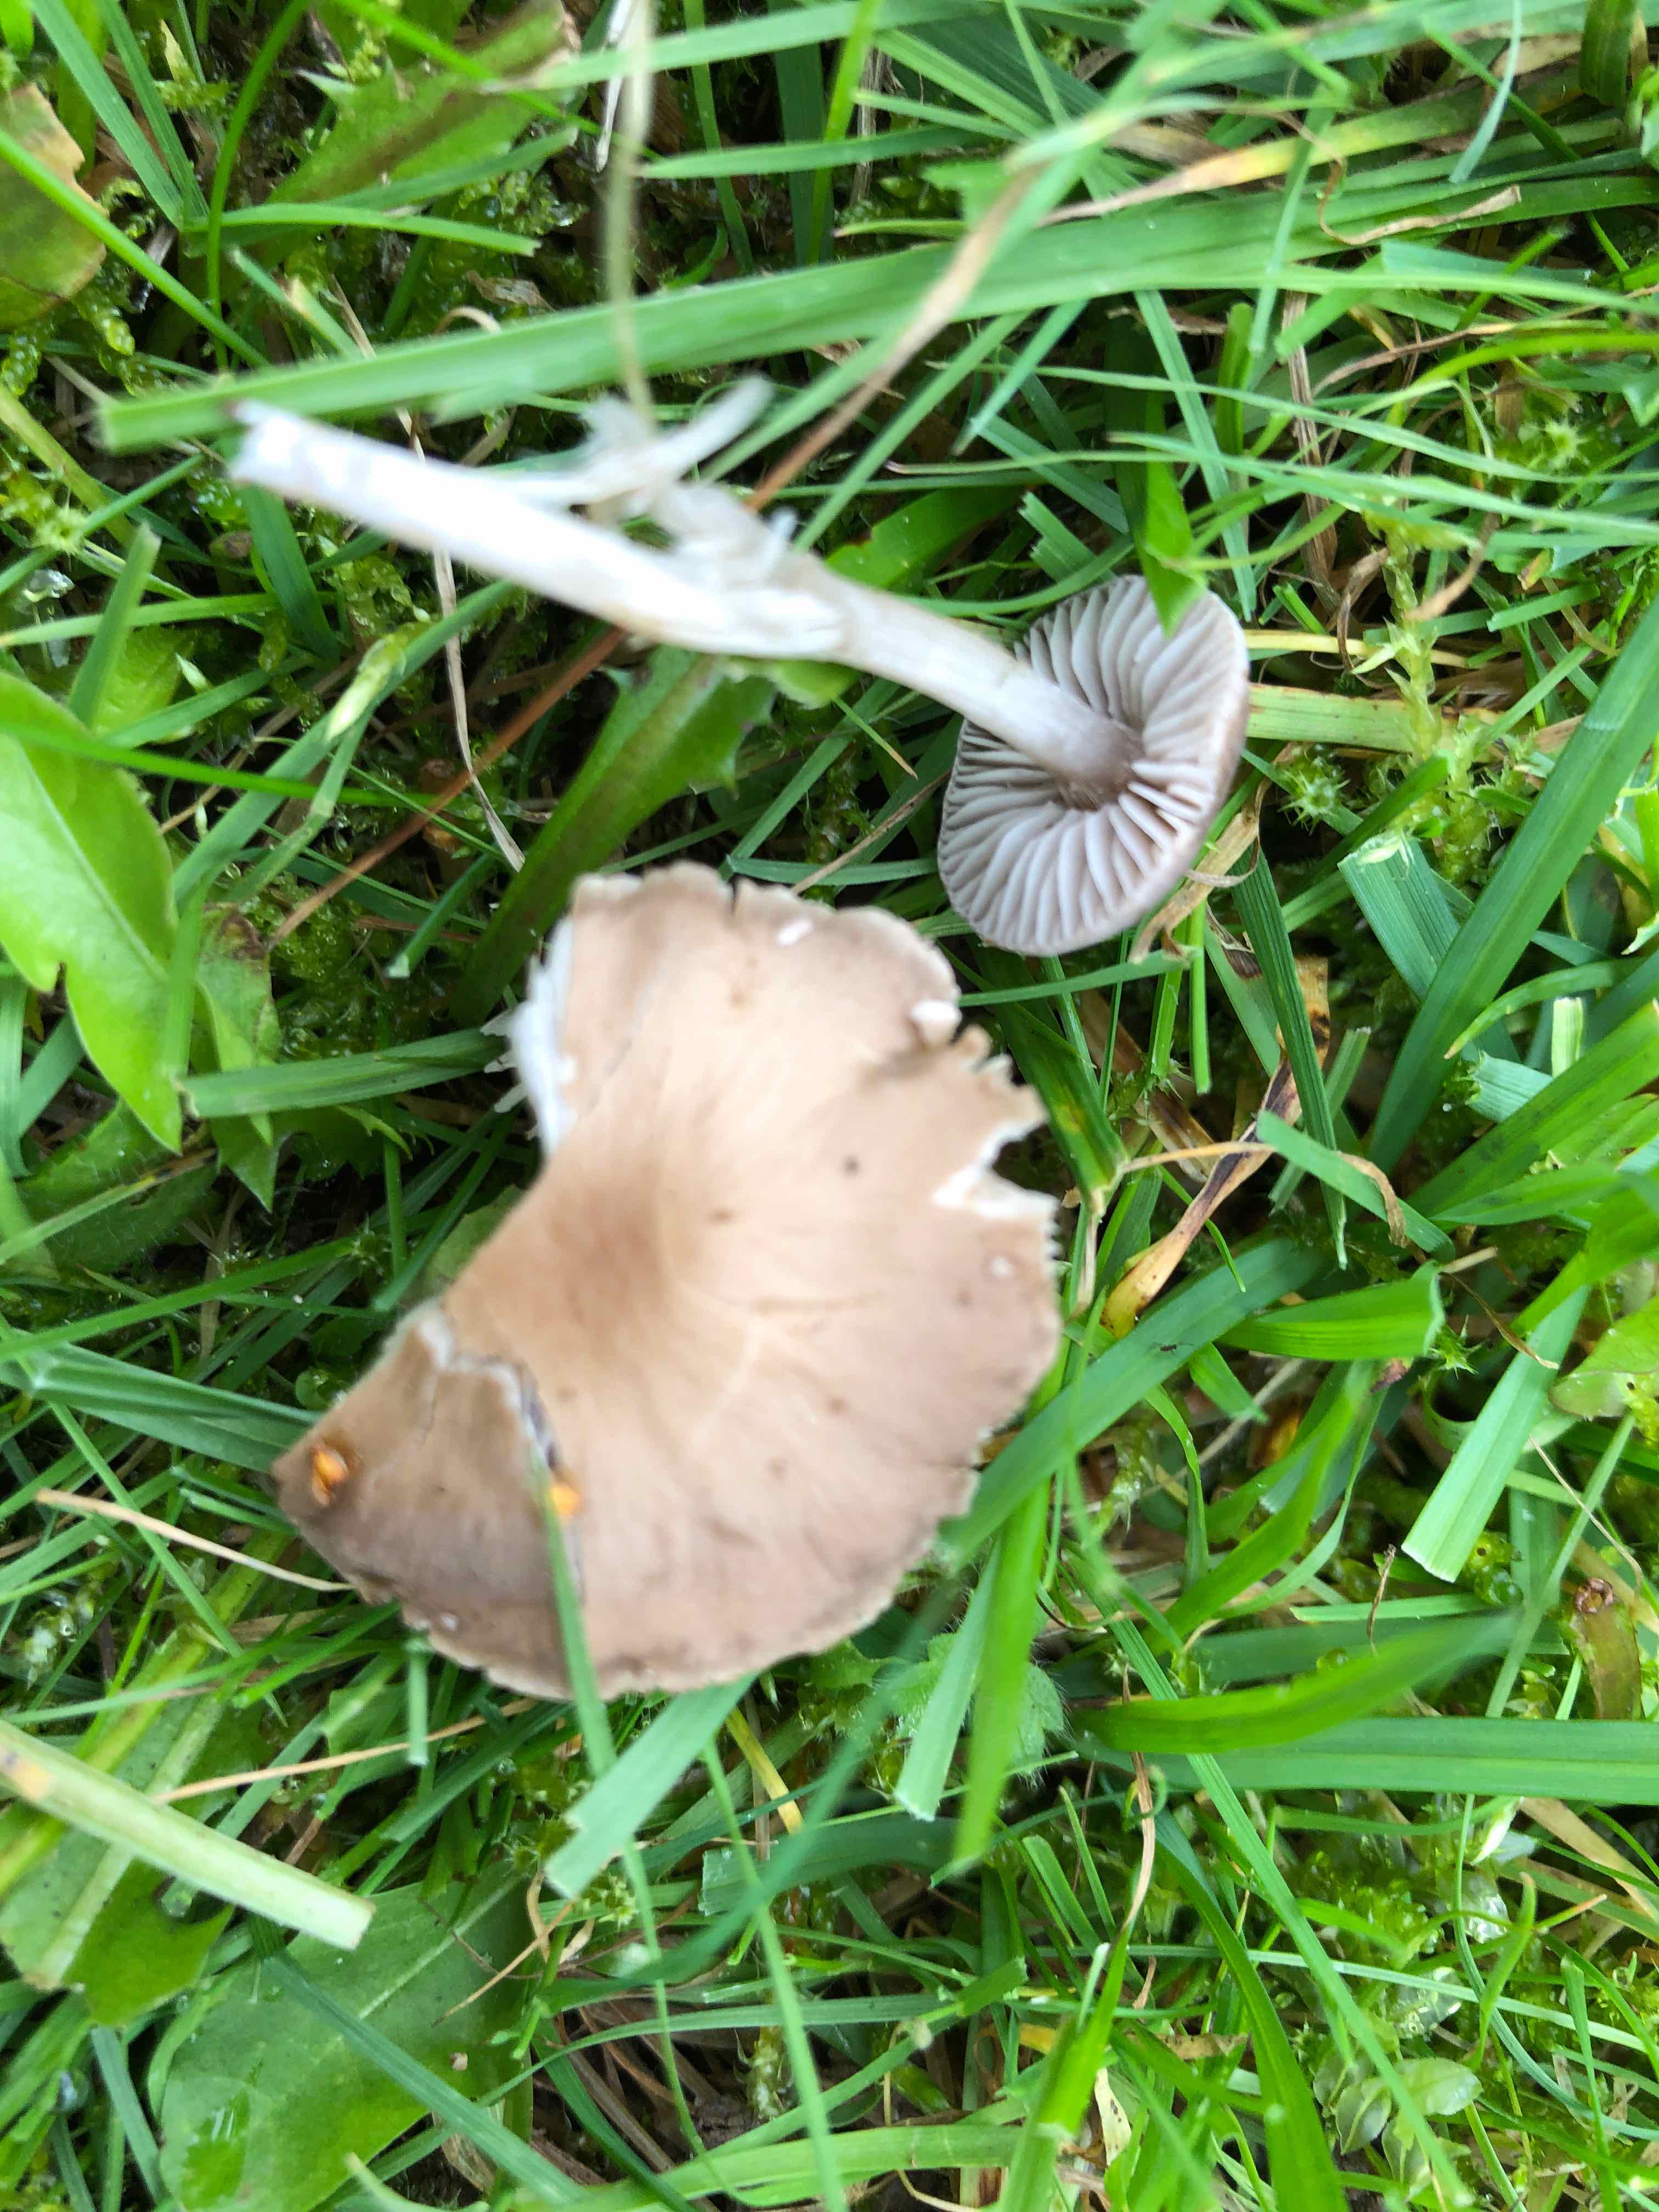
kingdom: Fungi
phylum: Basidiomycota
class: Agaricomycetes
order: Agaricales
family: Tricholomataceae
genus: Dermoloma
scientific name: Dermoloma cuneifolium
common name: eng-nonnehat
